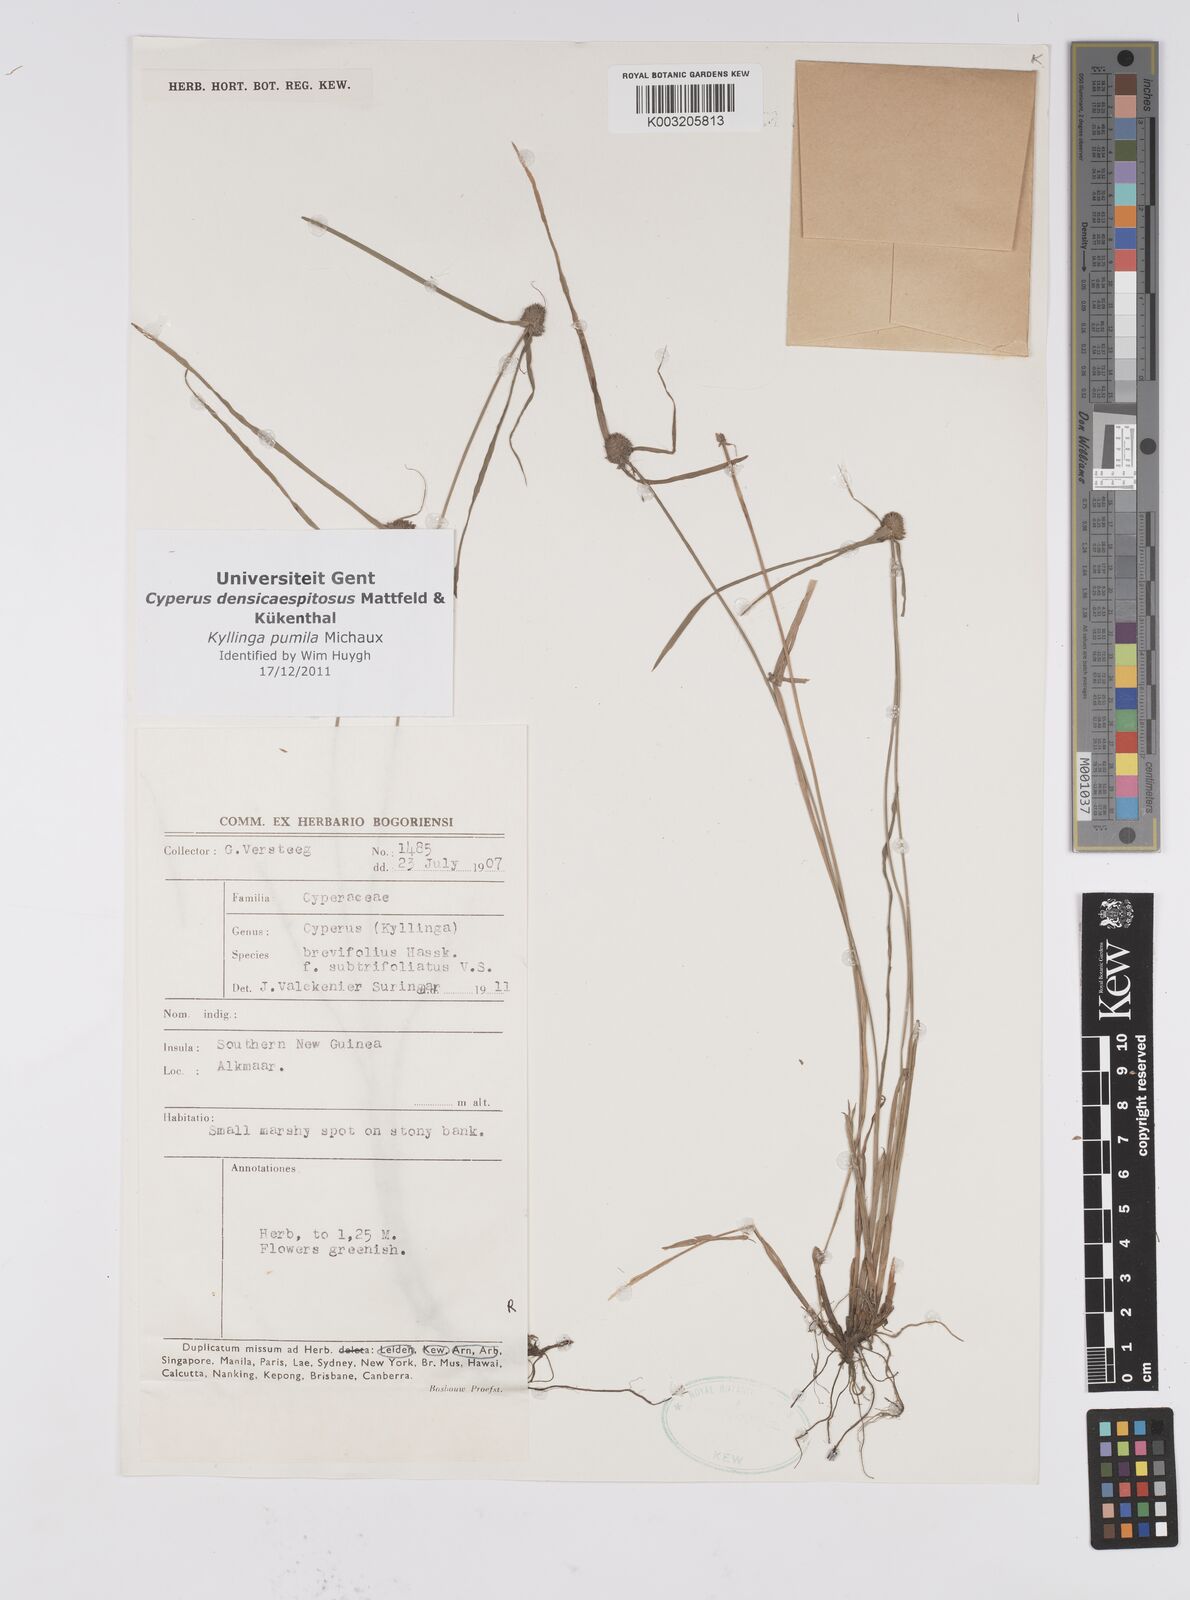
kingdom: Plantae
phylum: Tracheophyta
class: Liliopsida
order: Poales
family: Cyperaceae
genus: Cyperus
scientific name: Cyperus pumilus
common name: Low flatsedge
